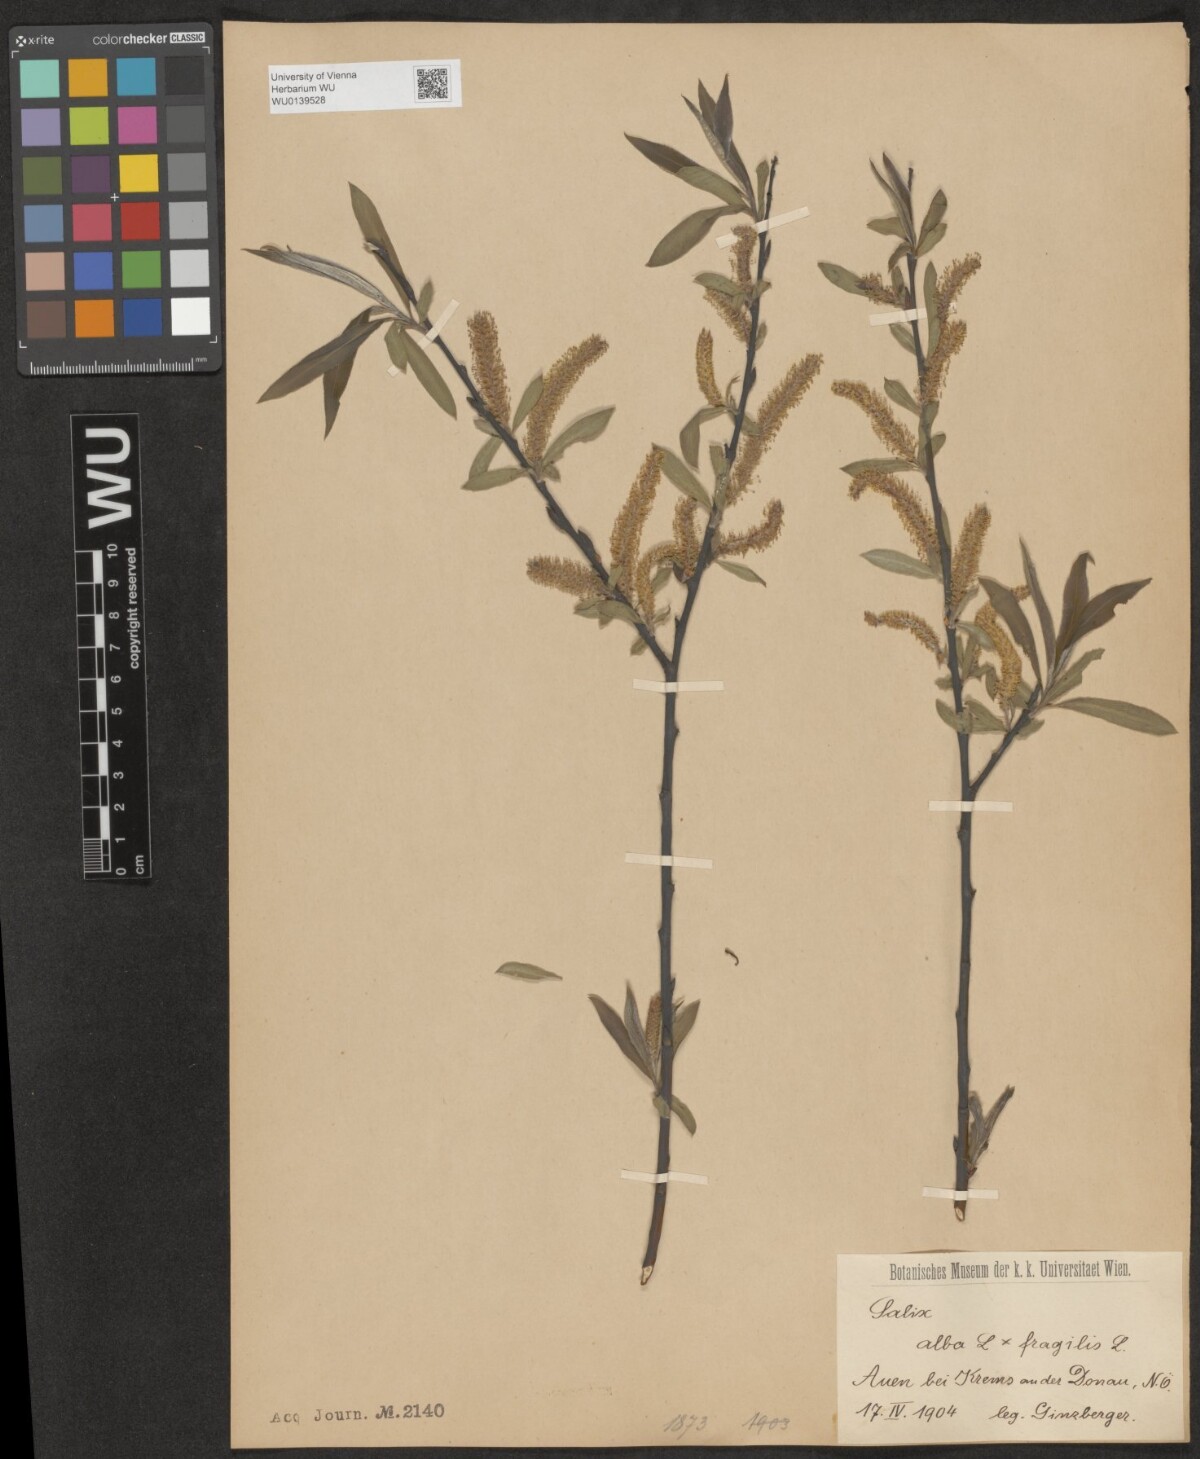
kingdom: Plantae
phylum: Tracheophyta
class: Magnoliopsida
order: Malpighiales
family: Salicaceae
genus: Salix
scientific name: Salix rubens
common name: Hybrid crack willow
